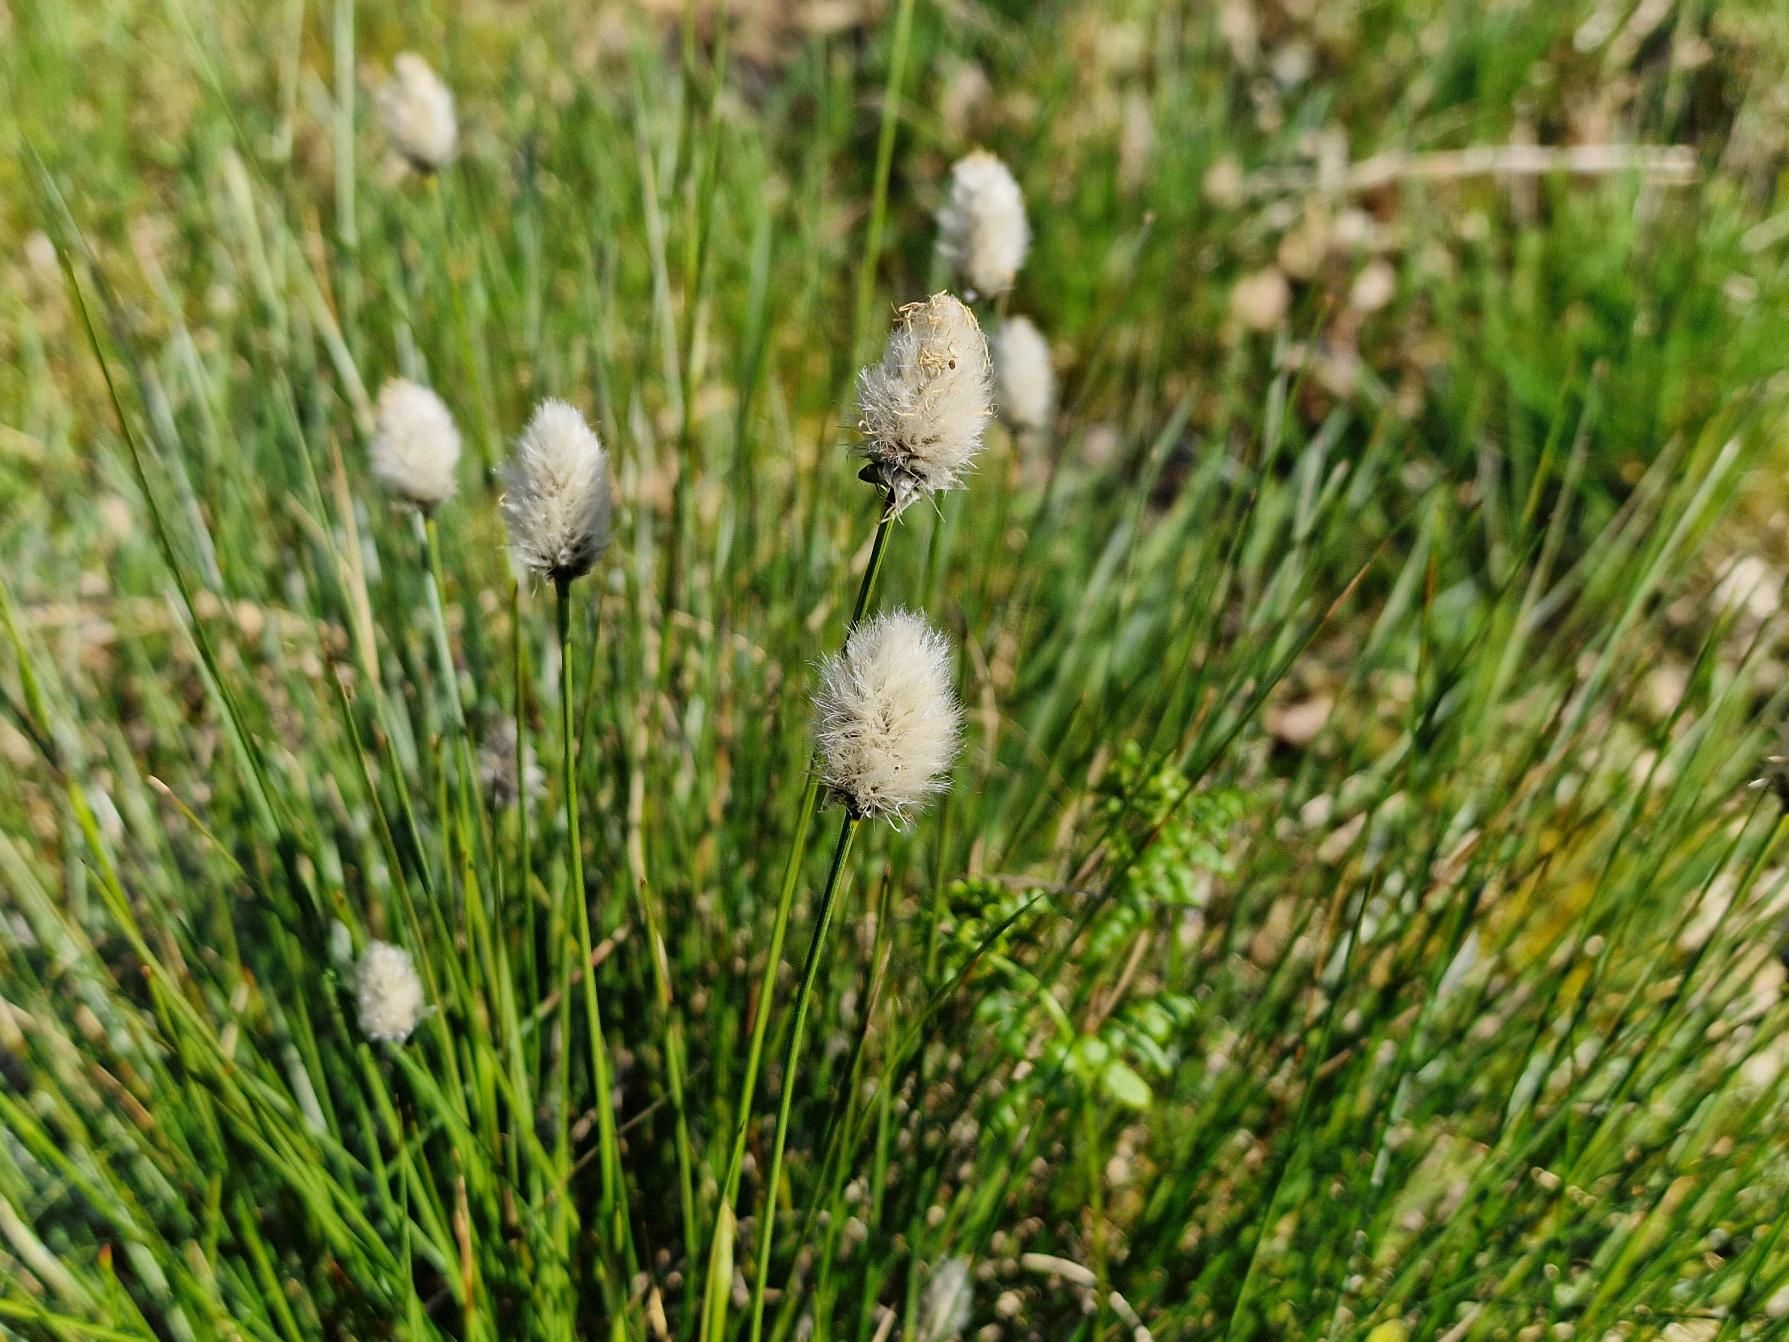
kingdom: Plantae
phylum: Tracheophyta
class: Liliopsida
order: Poales
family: Cyperaceae
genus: Eriophorum
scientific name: Eriophorum vaginatum
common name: Tue-kæruld
